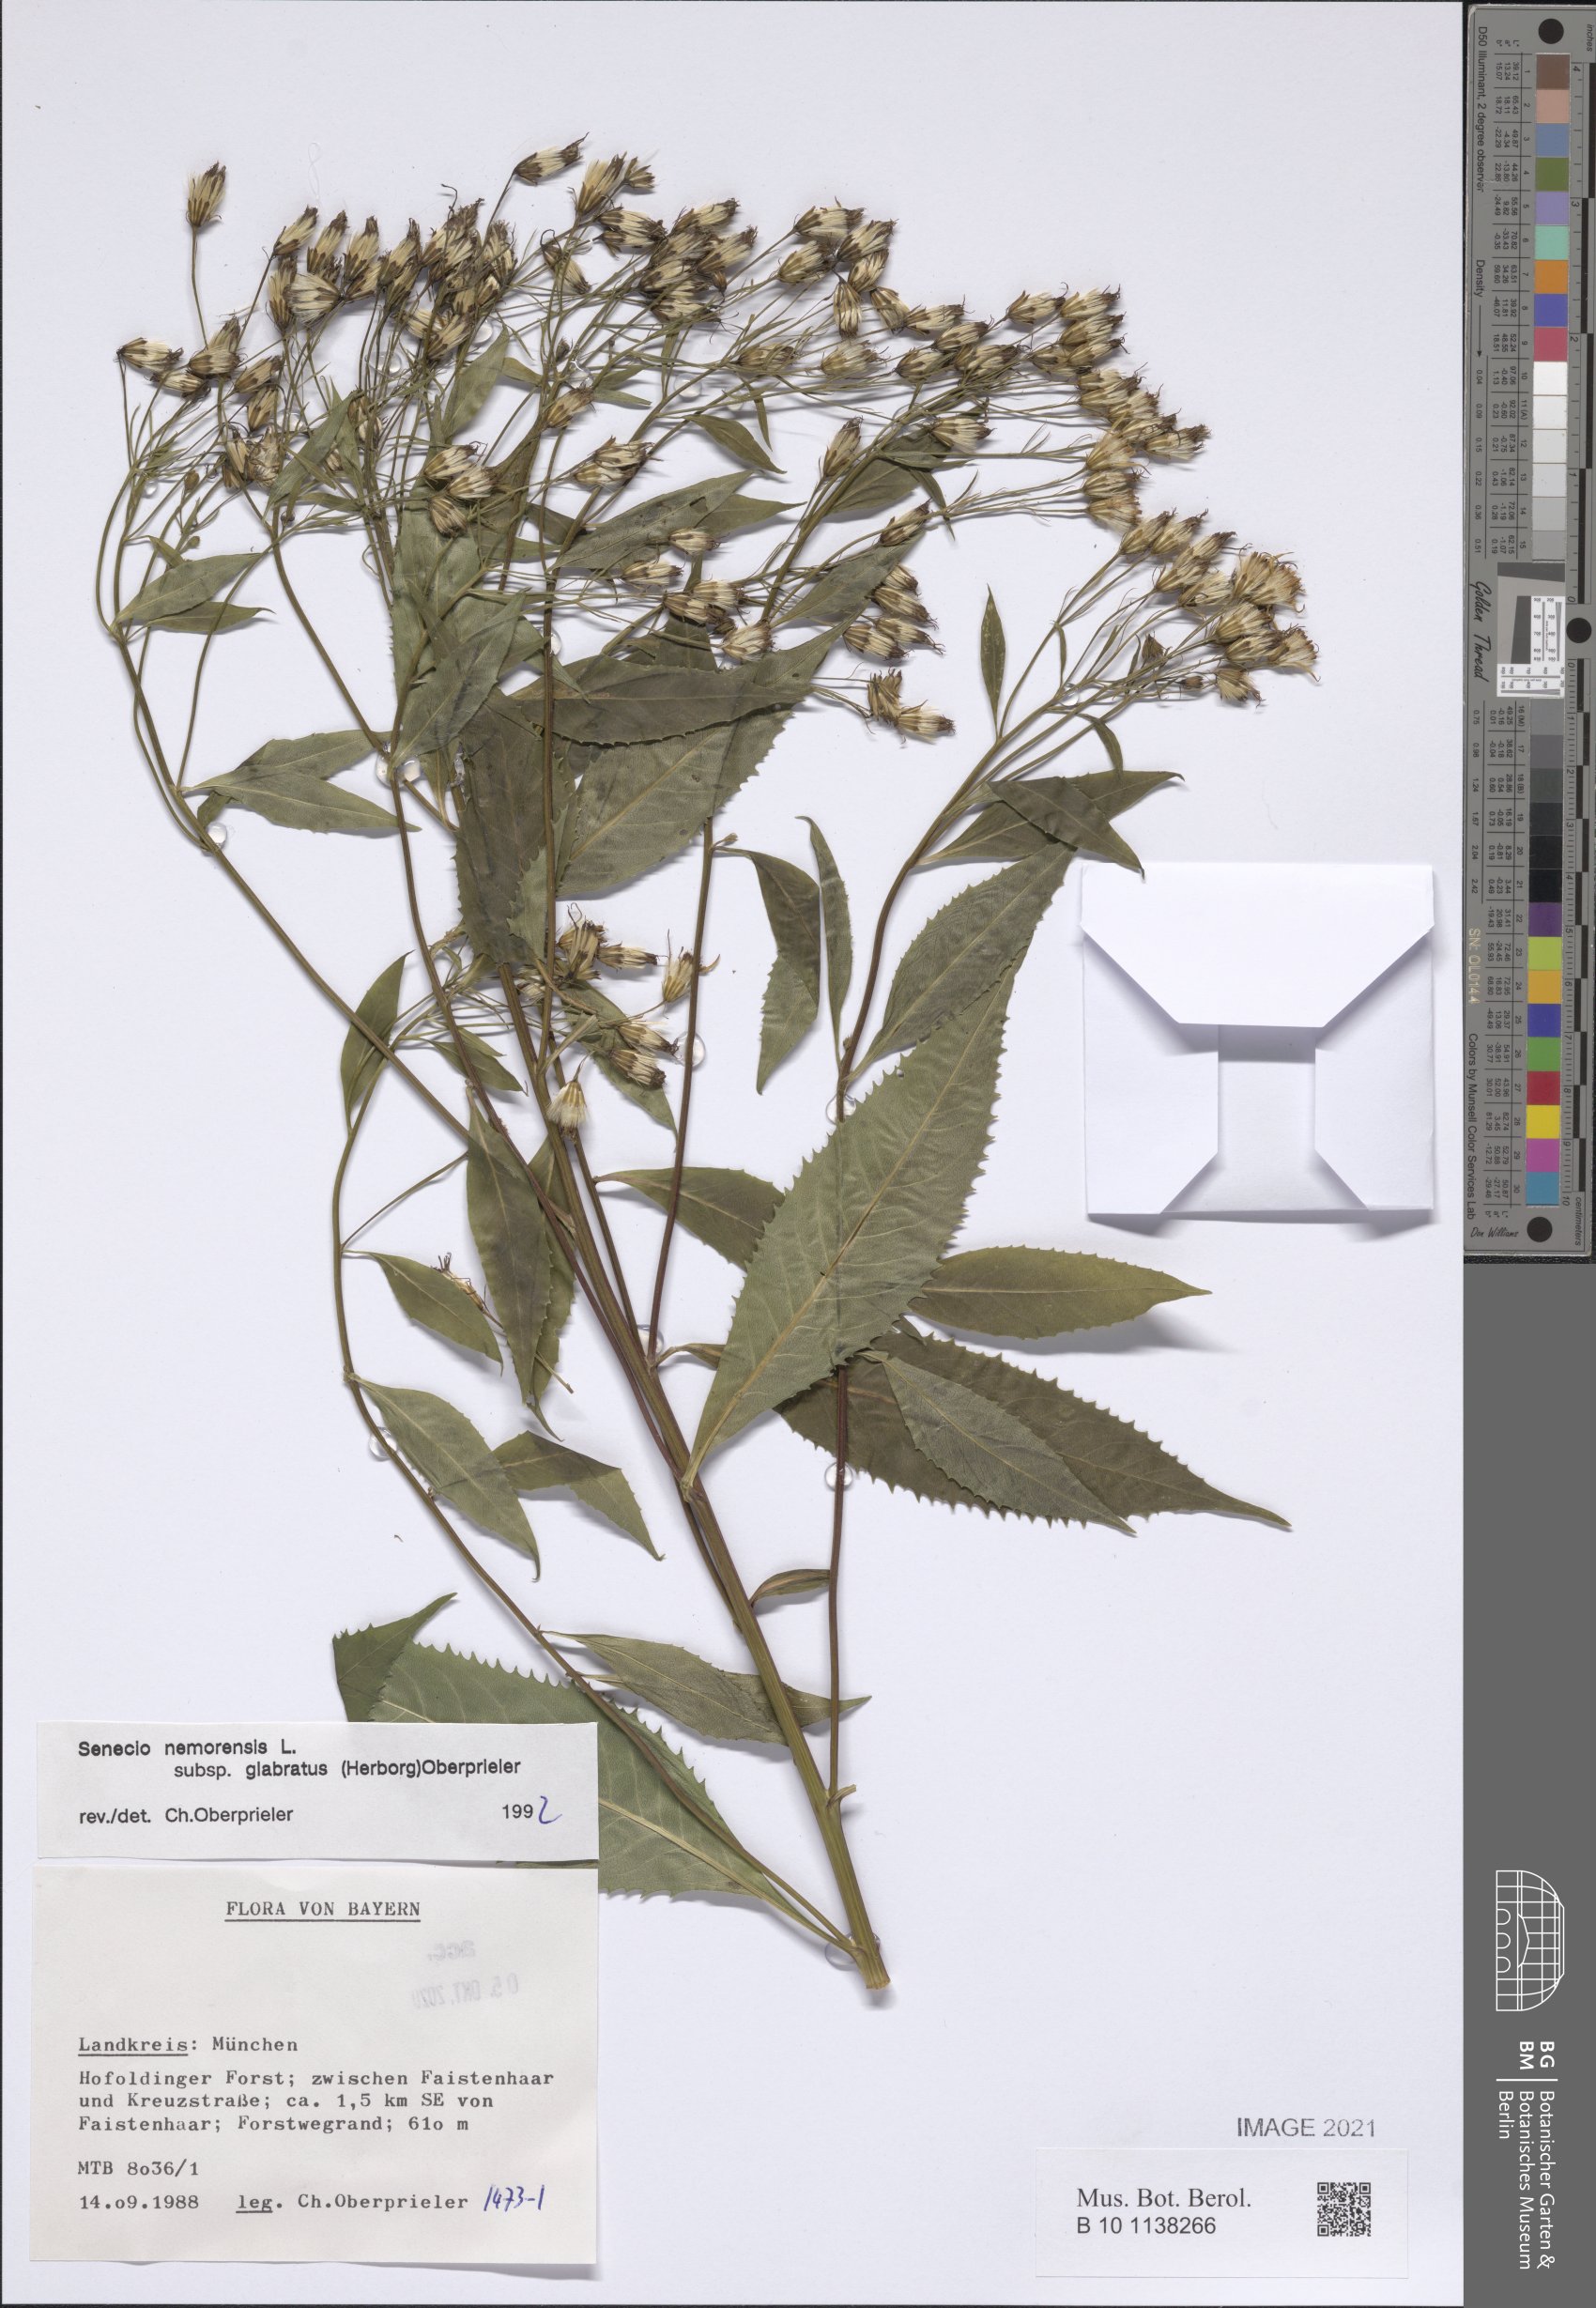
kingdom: Plantae
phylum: Tracheophyta
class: Magnoliopsida
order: Asterales
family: Asteraceae
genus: Senecio
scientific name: Senecio germanicus
